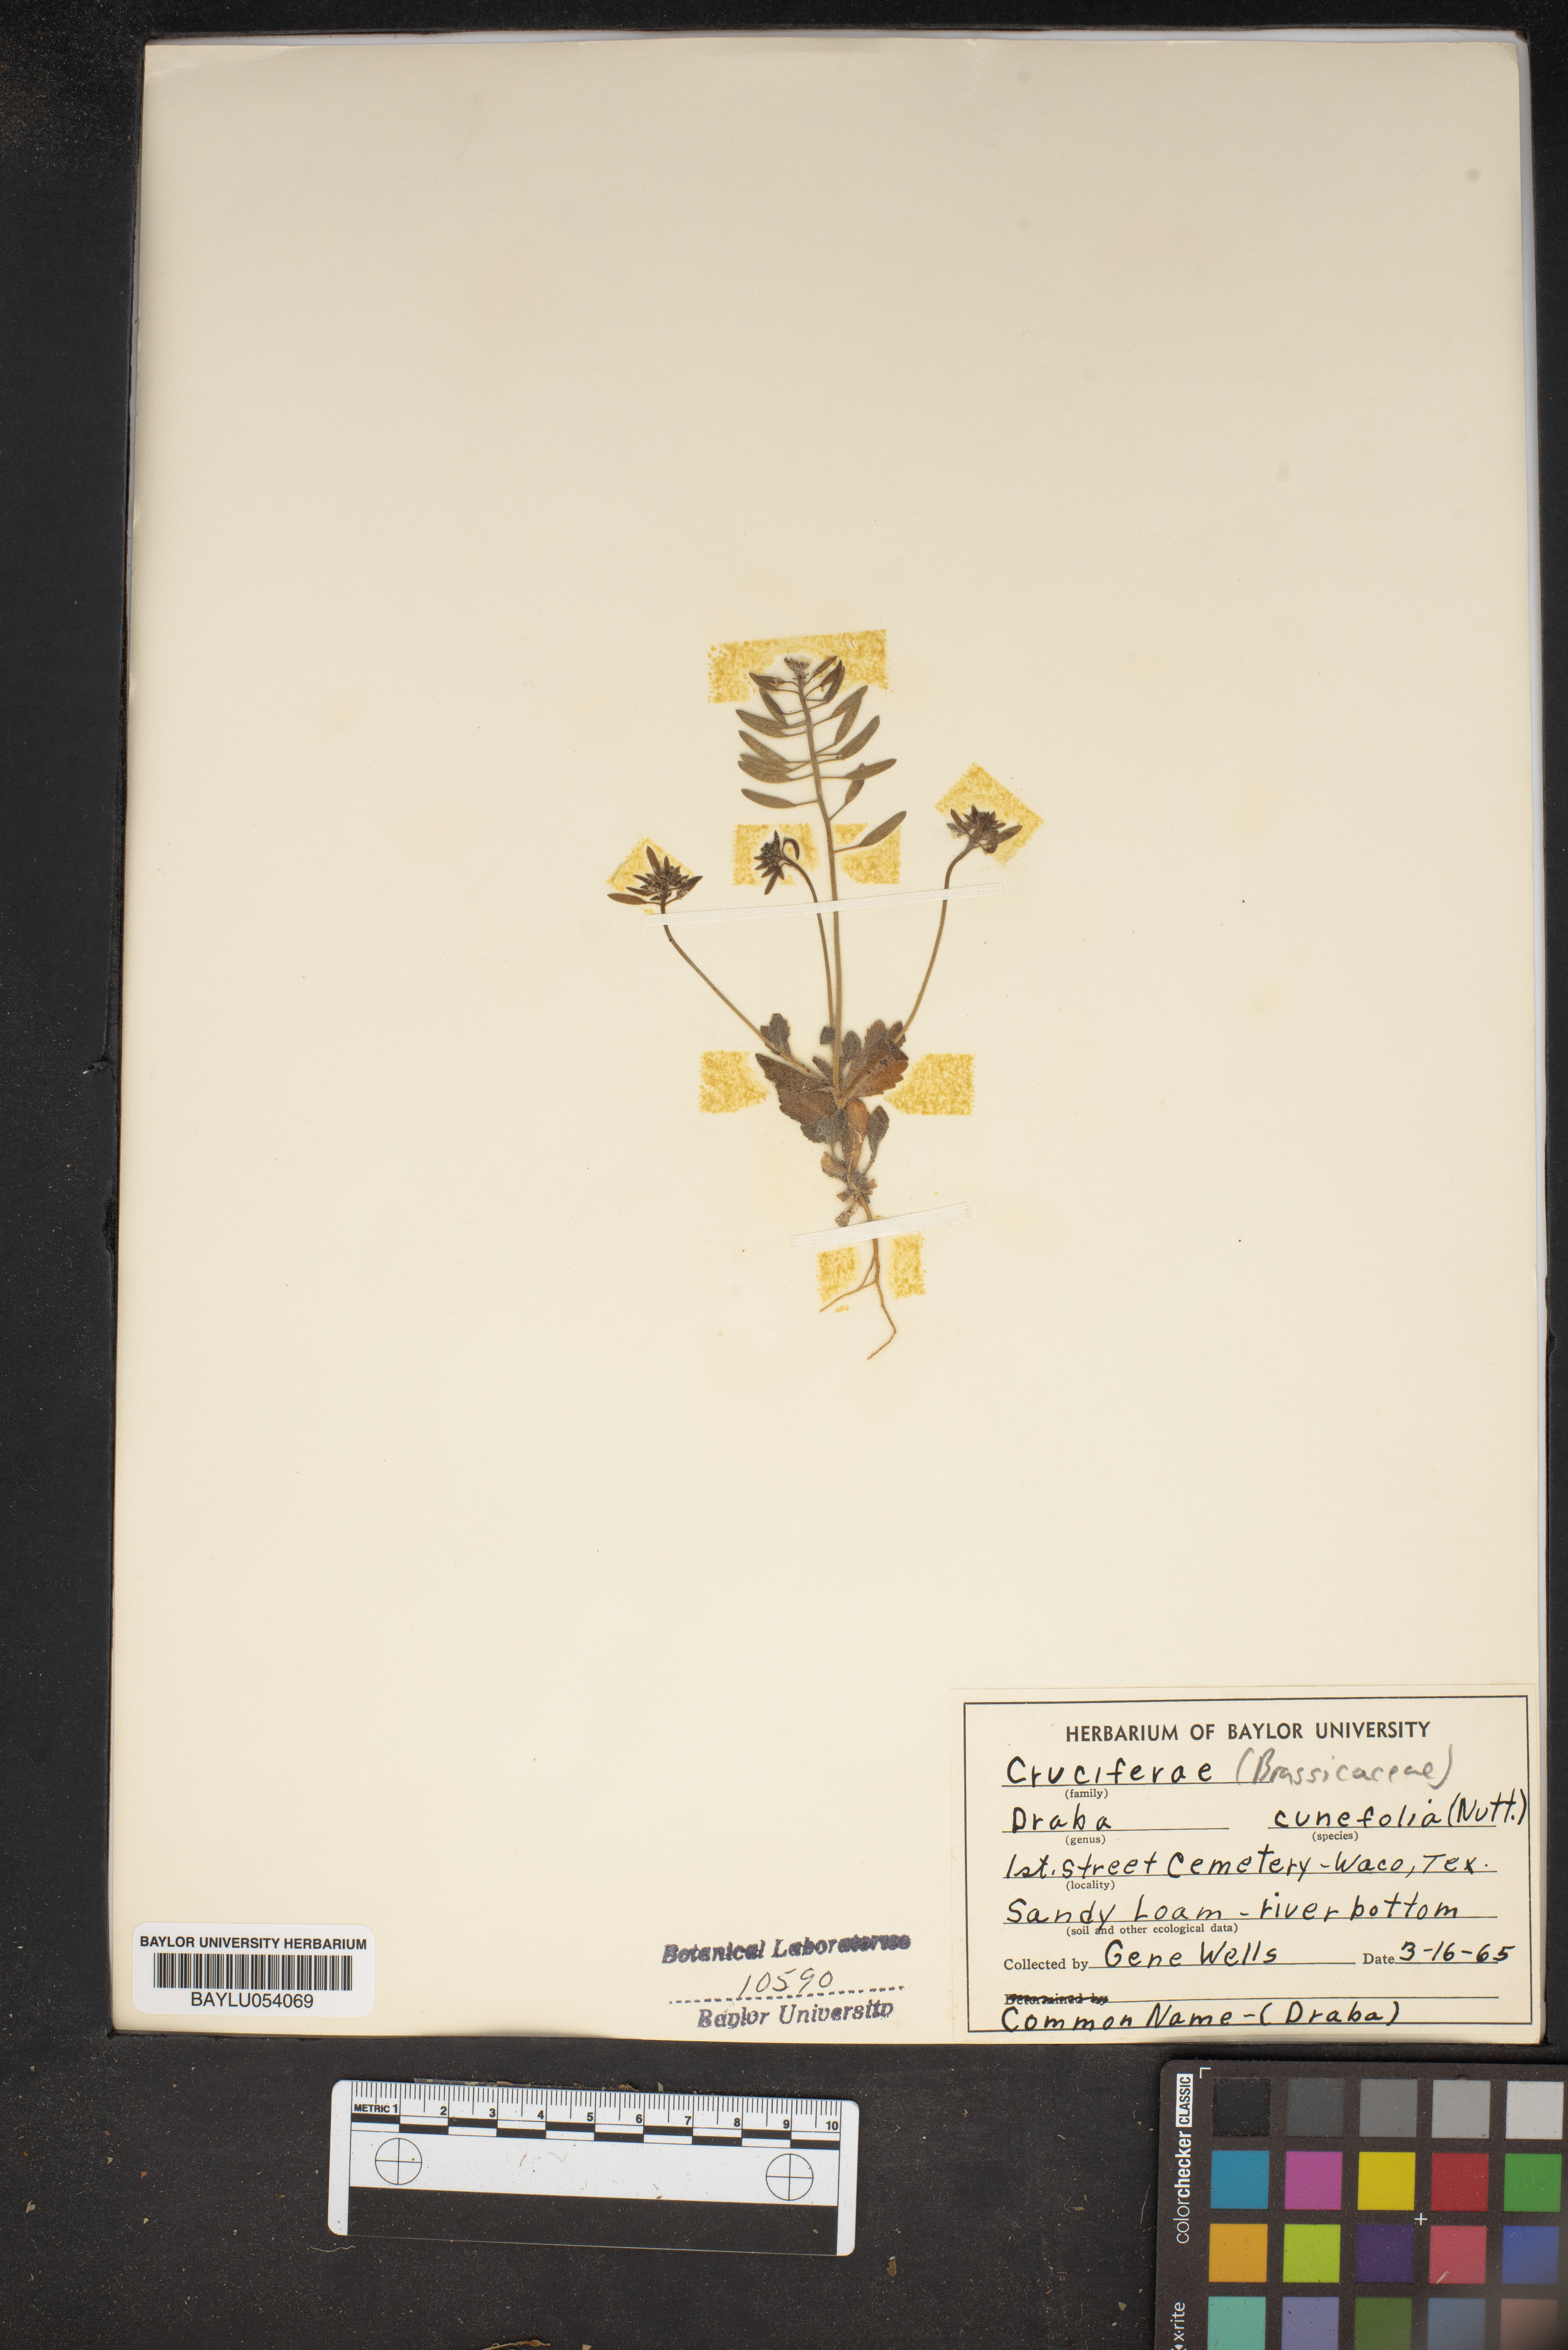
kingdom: Plantae
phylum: Tracheophyta
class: Magnoliopsida
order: Brassicales
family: Brassicaceae
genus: Draba
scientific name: Draba
